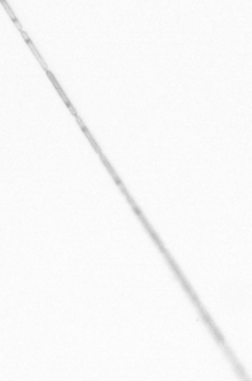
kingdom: Chromista
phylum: Ochrophyta
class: Bacillariophyceae
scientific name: Bacillariophyceae
